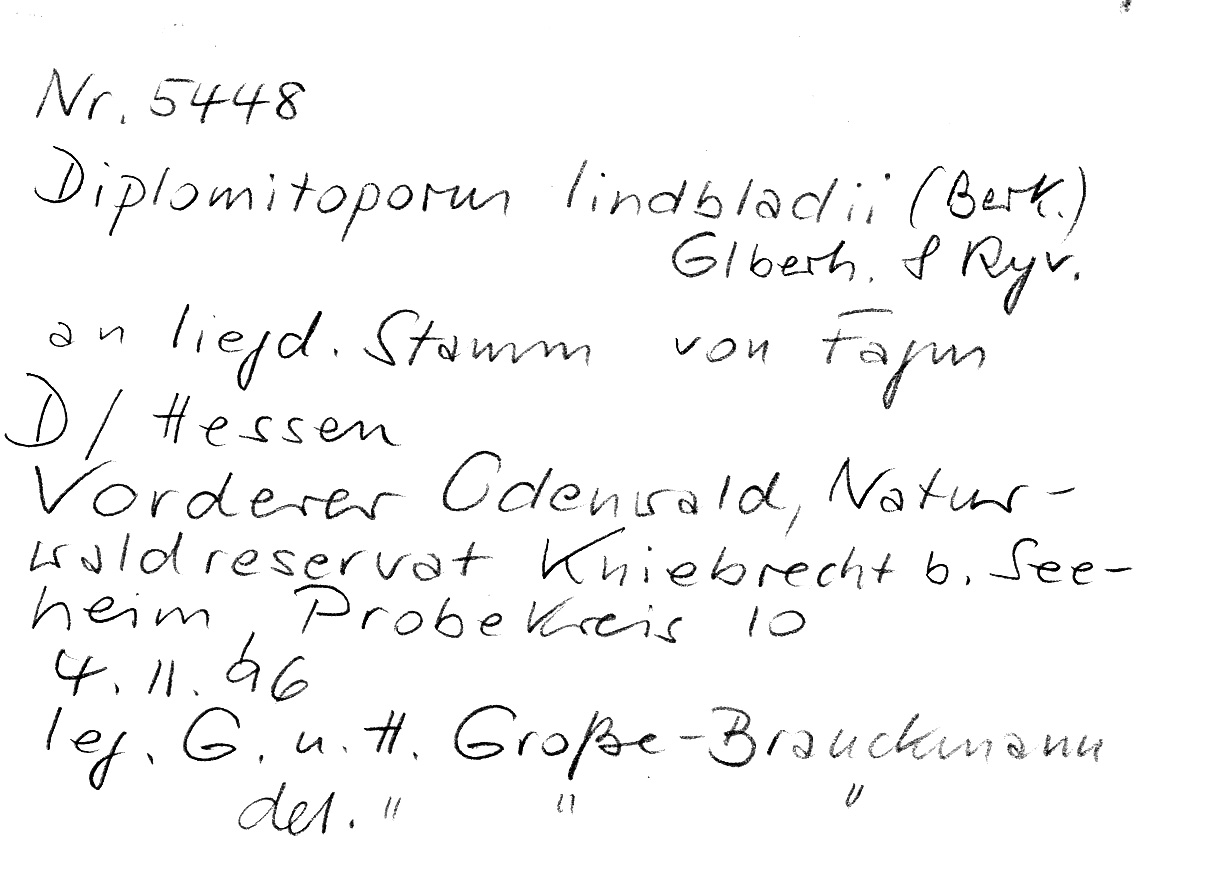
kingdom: Fungi
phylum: Basidiomycota
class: Agaricomycetes
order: Polyporales
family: Gelatoporiaceae
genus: Cinereomyces
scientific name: Cinereomyces lindbladii
